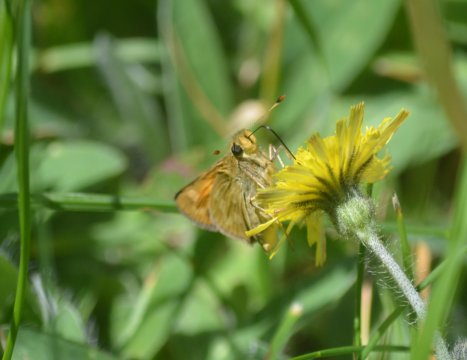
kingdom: Animalia
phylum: Arthropoda
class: Insecta
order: Lepidoptera
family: Hesperiidae
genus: Polites
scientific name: Polites
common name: Long Dash Skipper
